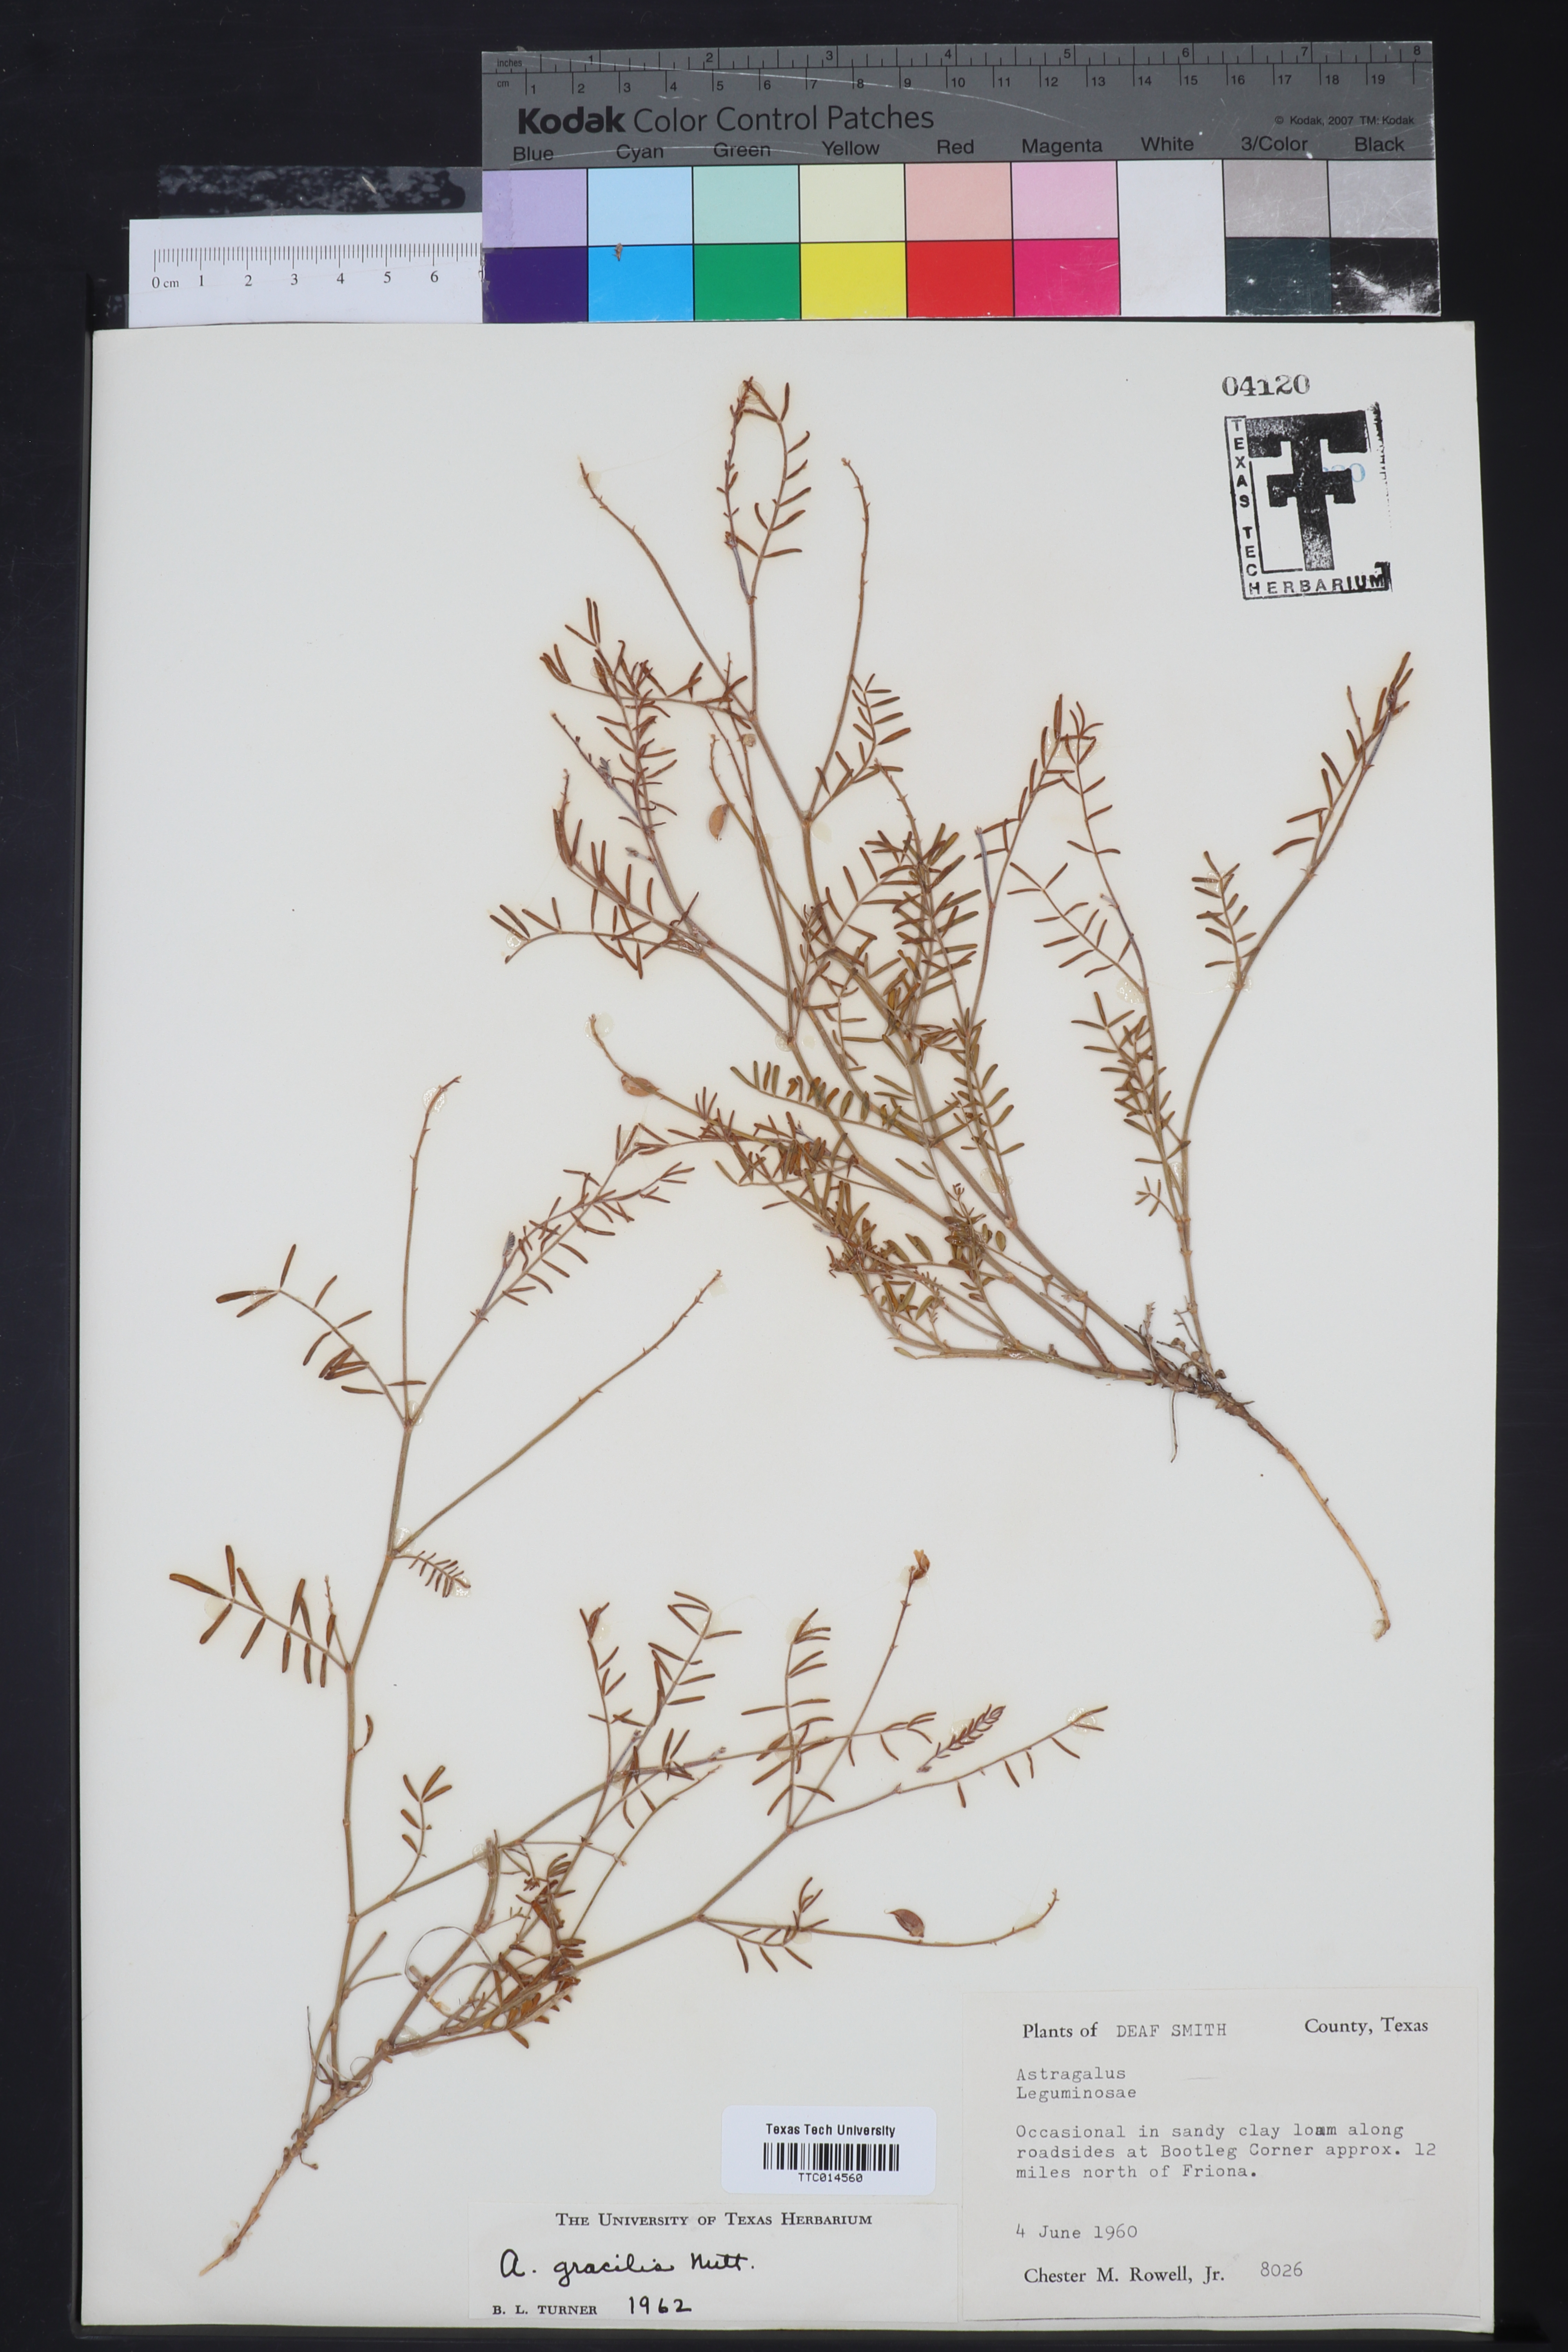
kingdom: Plantae
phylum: Tracheophyta
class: Magnoliopsida
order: Fabales
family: Fabaceae
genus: Astragalus
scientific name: Astragalus gracilis
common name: Slender milk-vetch
